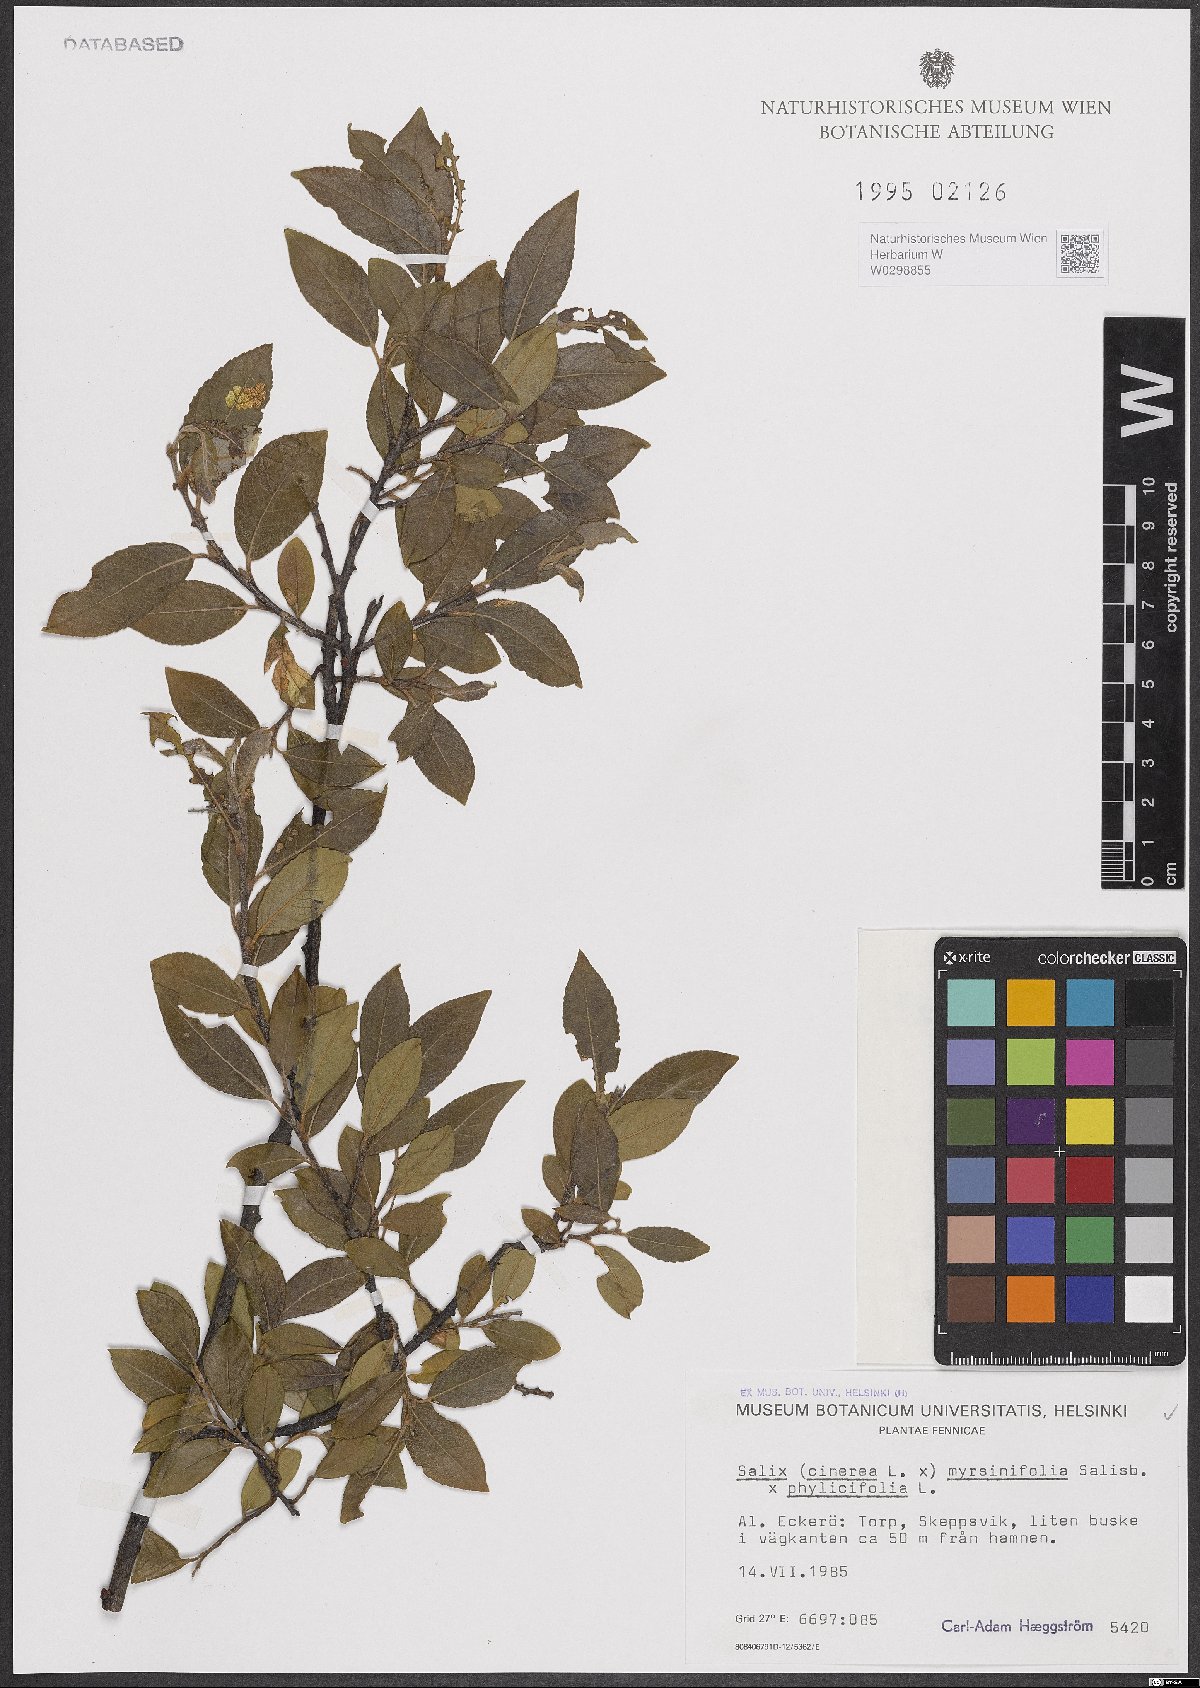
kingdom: Plantae
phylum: Tracheophyta
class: Magnoliopsida
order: Malpighiales
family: Salicaceae
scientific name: Salicaceae
